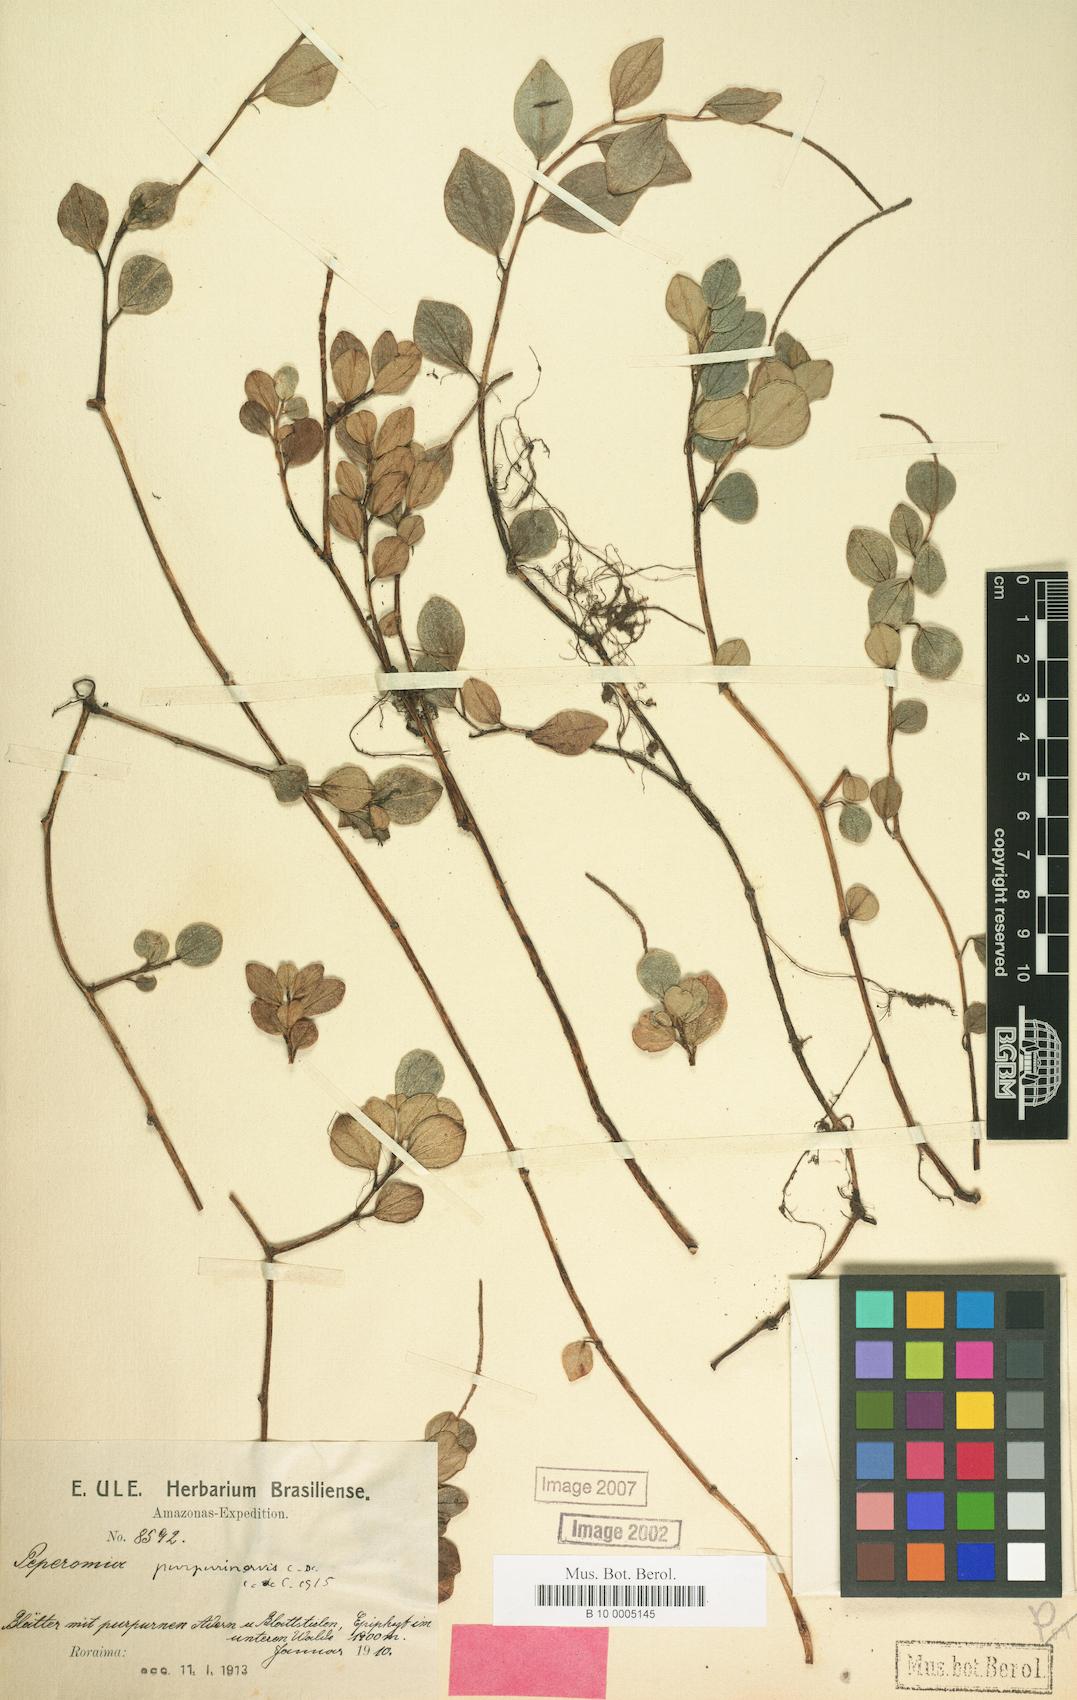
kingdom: Plantae
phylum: Tracheophyta
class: Magnoliopsida
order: Piperales
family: Piperaceae
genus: Peperomia
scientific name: Peperomia purpurinervis
